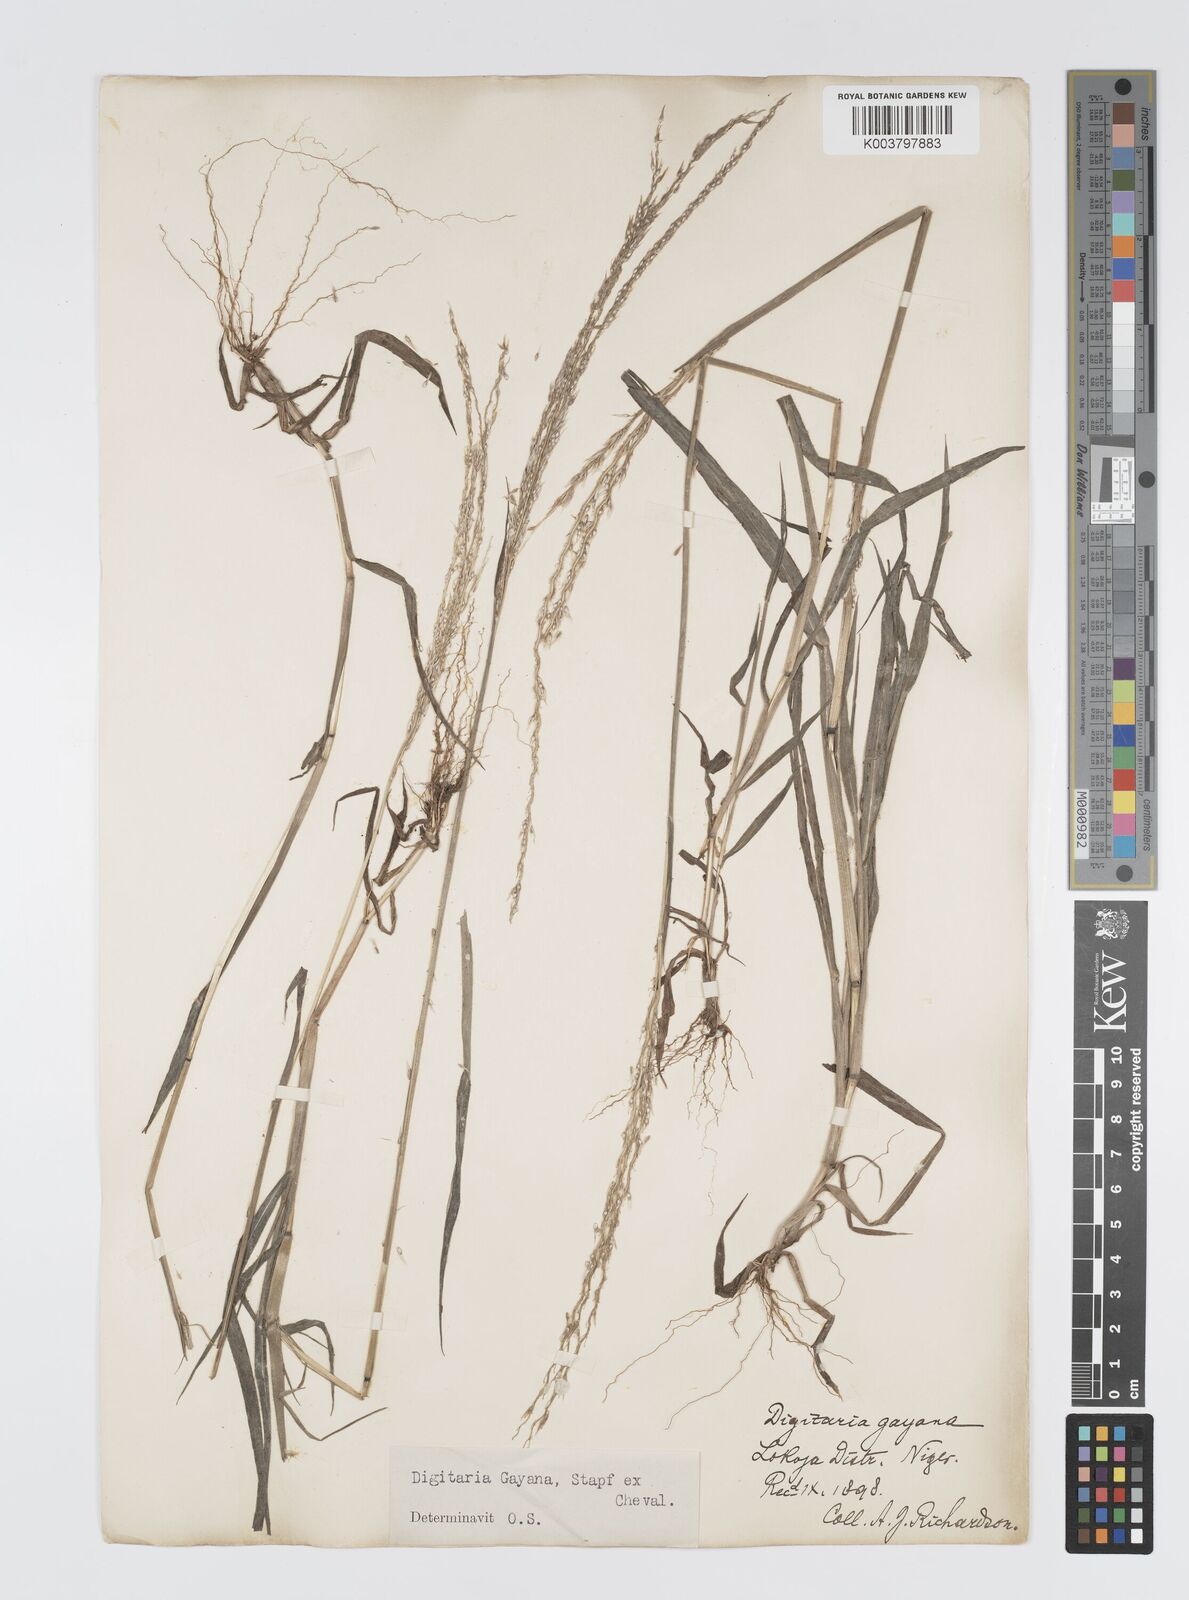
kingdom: Plantae
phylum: Tracheophyta
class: Liliopsida
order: Poales
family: Poaceae
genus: Digitaria
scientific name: Digitaria gayana
